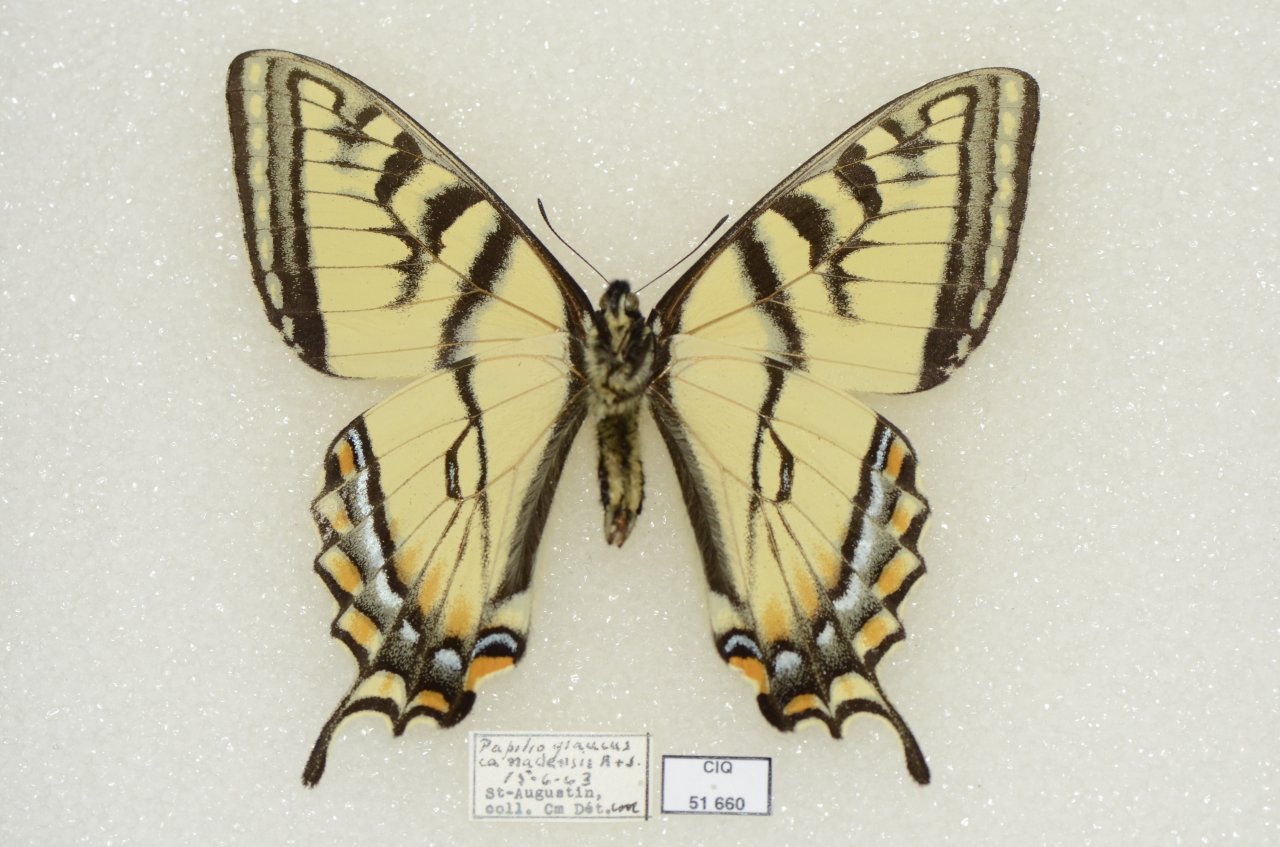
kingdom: Animalia
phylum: Arthropoda
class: Insecta
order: Lepidoptera
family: Papilionidae
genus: Pterourus
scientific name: Pterourus canadensis
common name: Canadian Tiger Swallowtail
